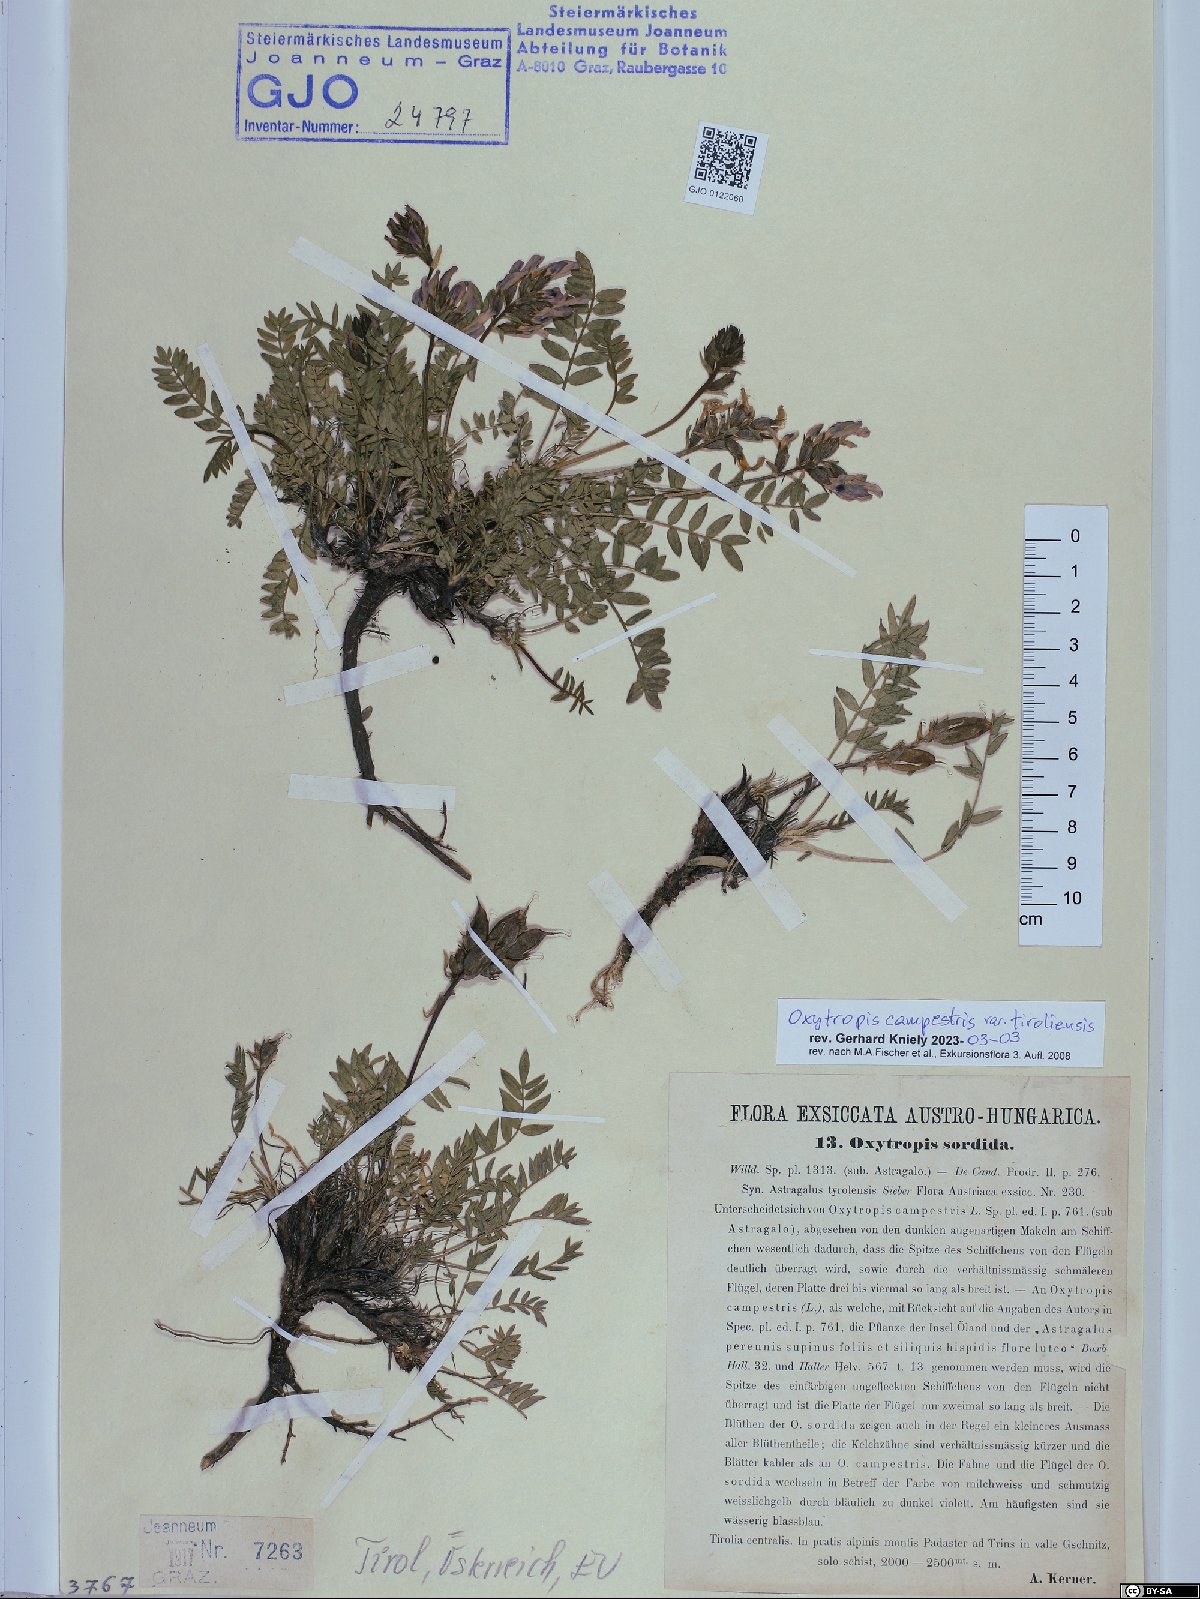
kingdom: Plantae
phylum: Tracheophyta
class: Magnoliopsida
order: Fabales
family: Fabaceae
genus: Oxytropis
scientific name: Oxytropis campestris
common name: Field locoweed
